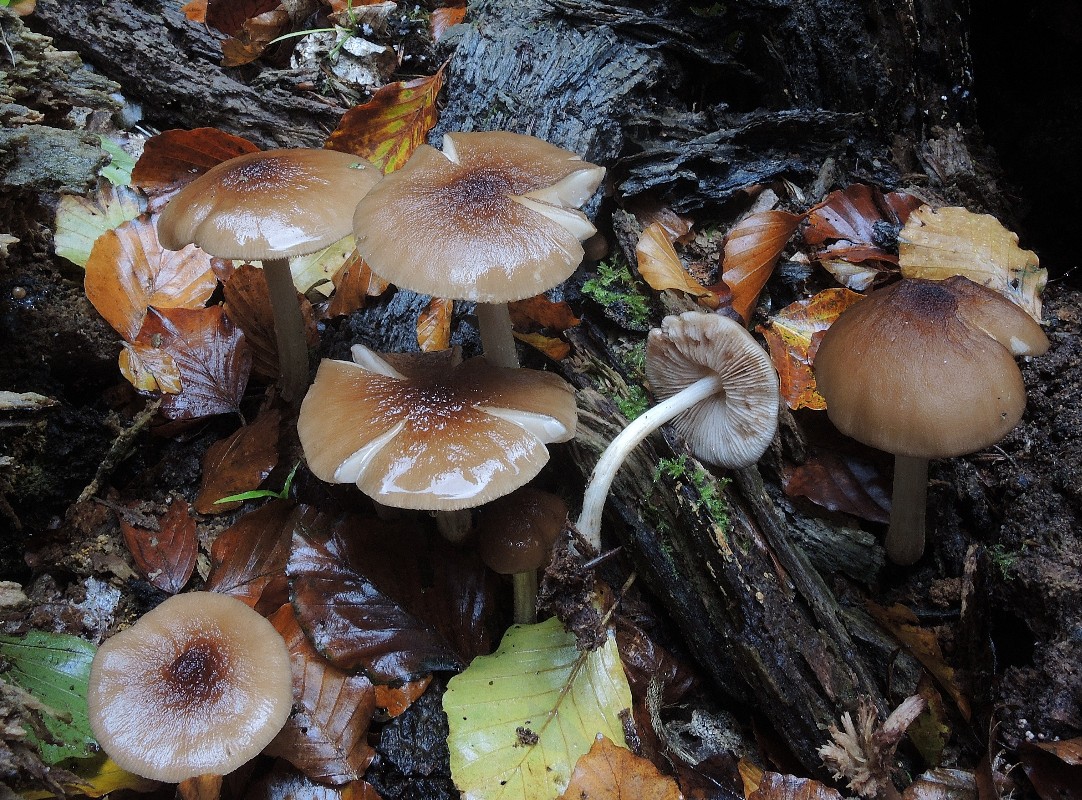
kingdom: Fungi
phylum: Basidiomycota
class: Agaricomycetes
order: Agaricales
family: Pluteaceae
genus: Pluteus
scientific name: Pluteus phlebophorus
